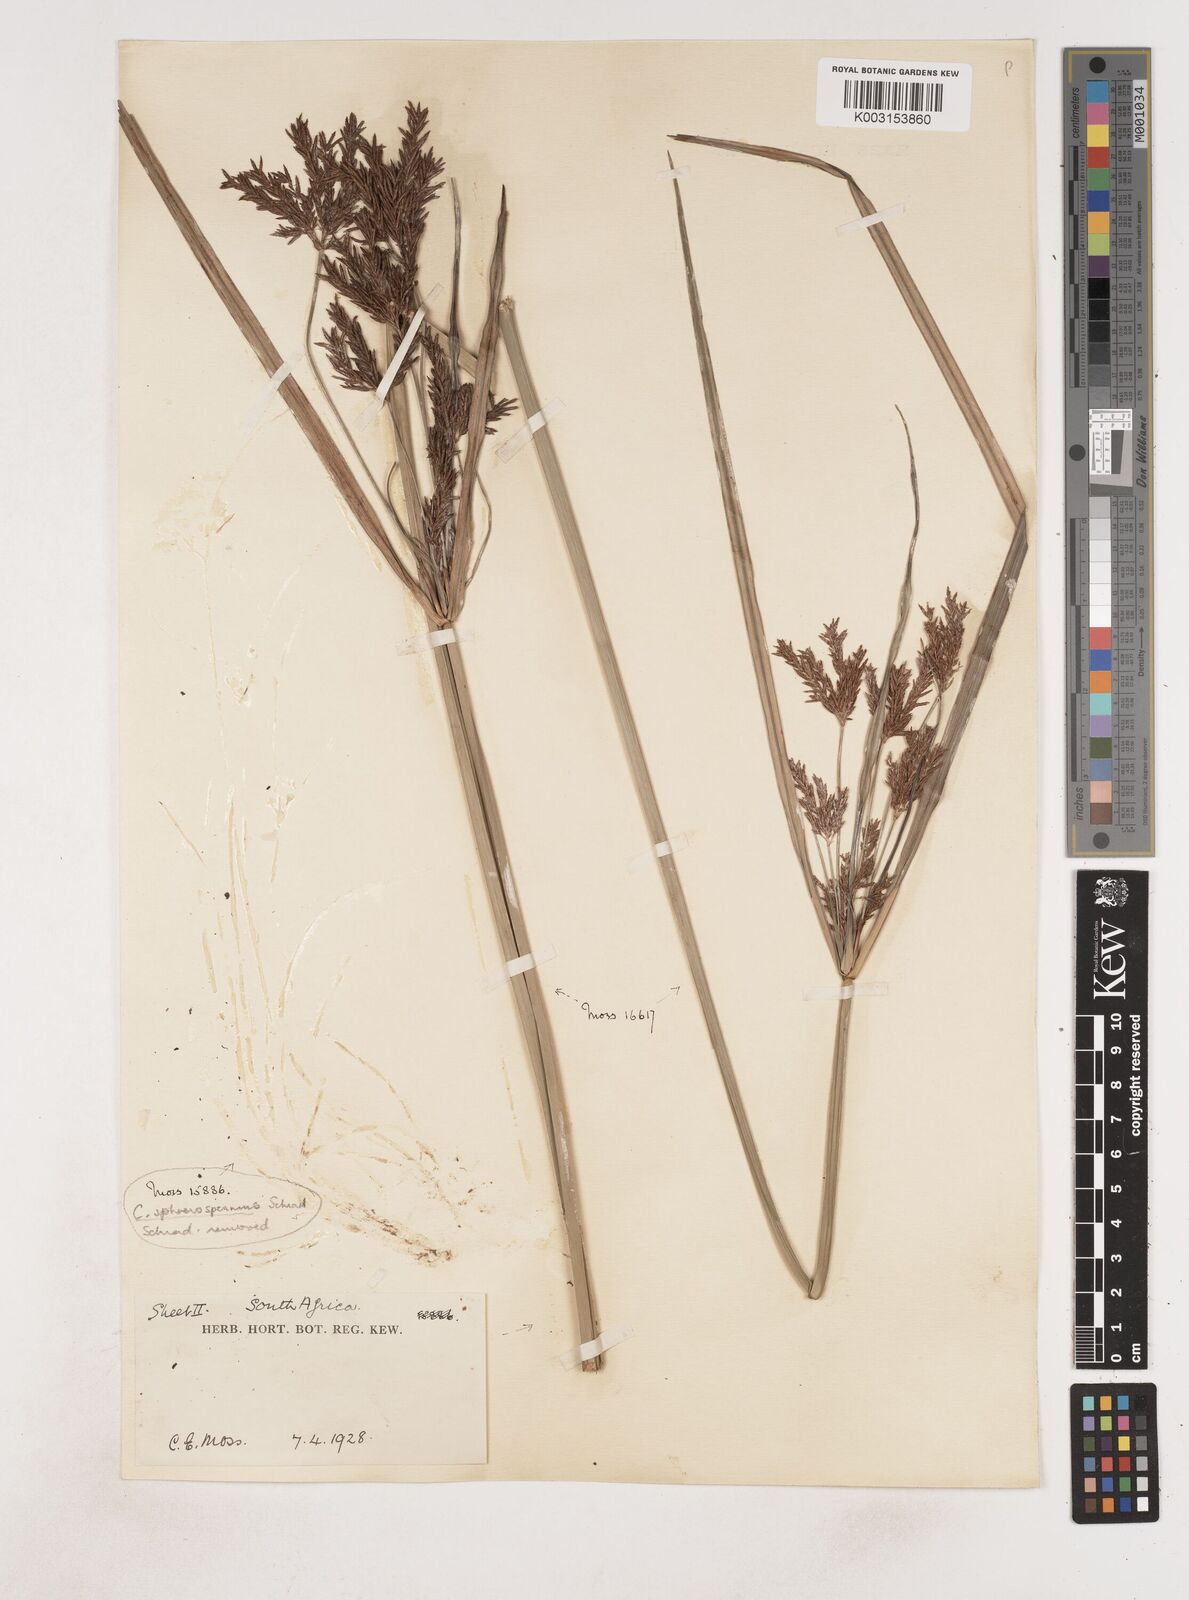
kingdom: Plantae
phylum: Tracheophyta
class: Liliopsida
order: Poales
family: Cyperaceae
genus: Cyperus
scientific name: Cyperus
